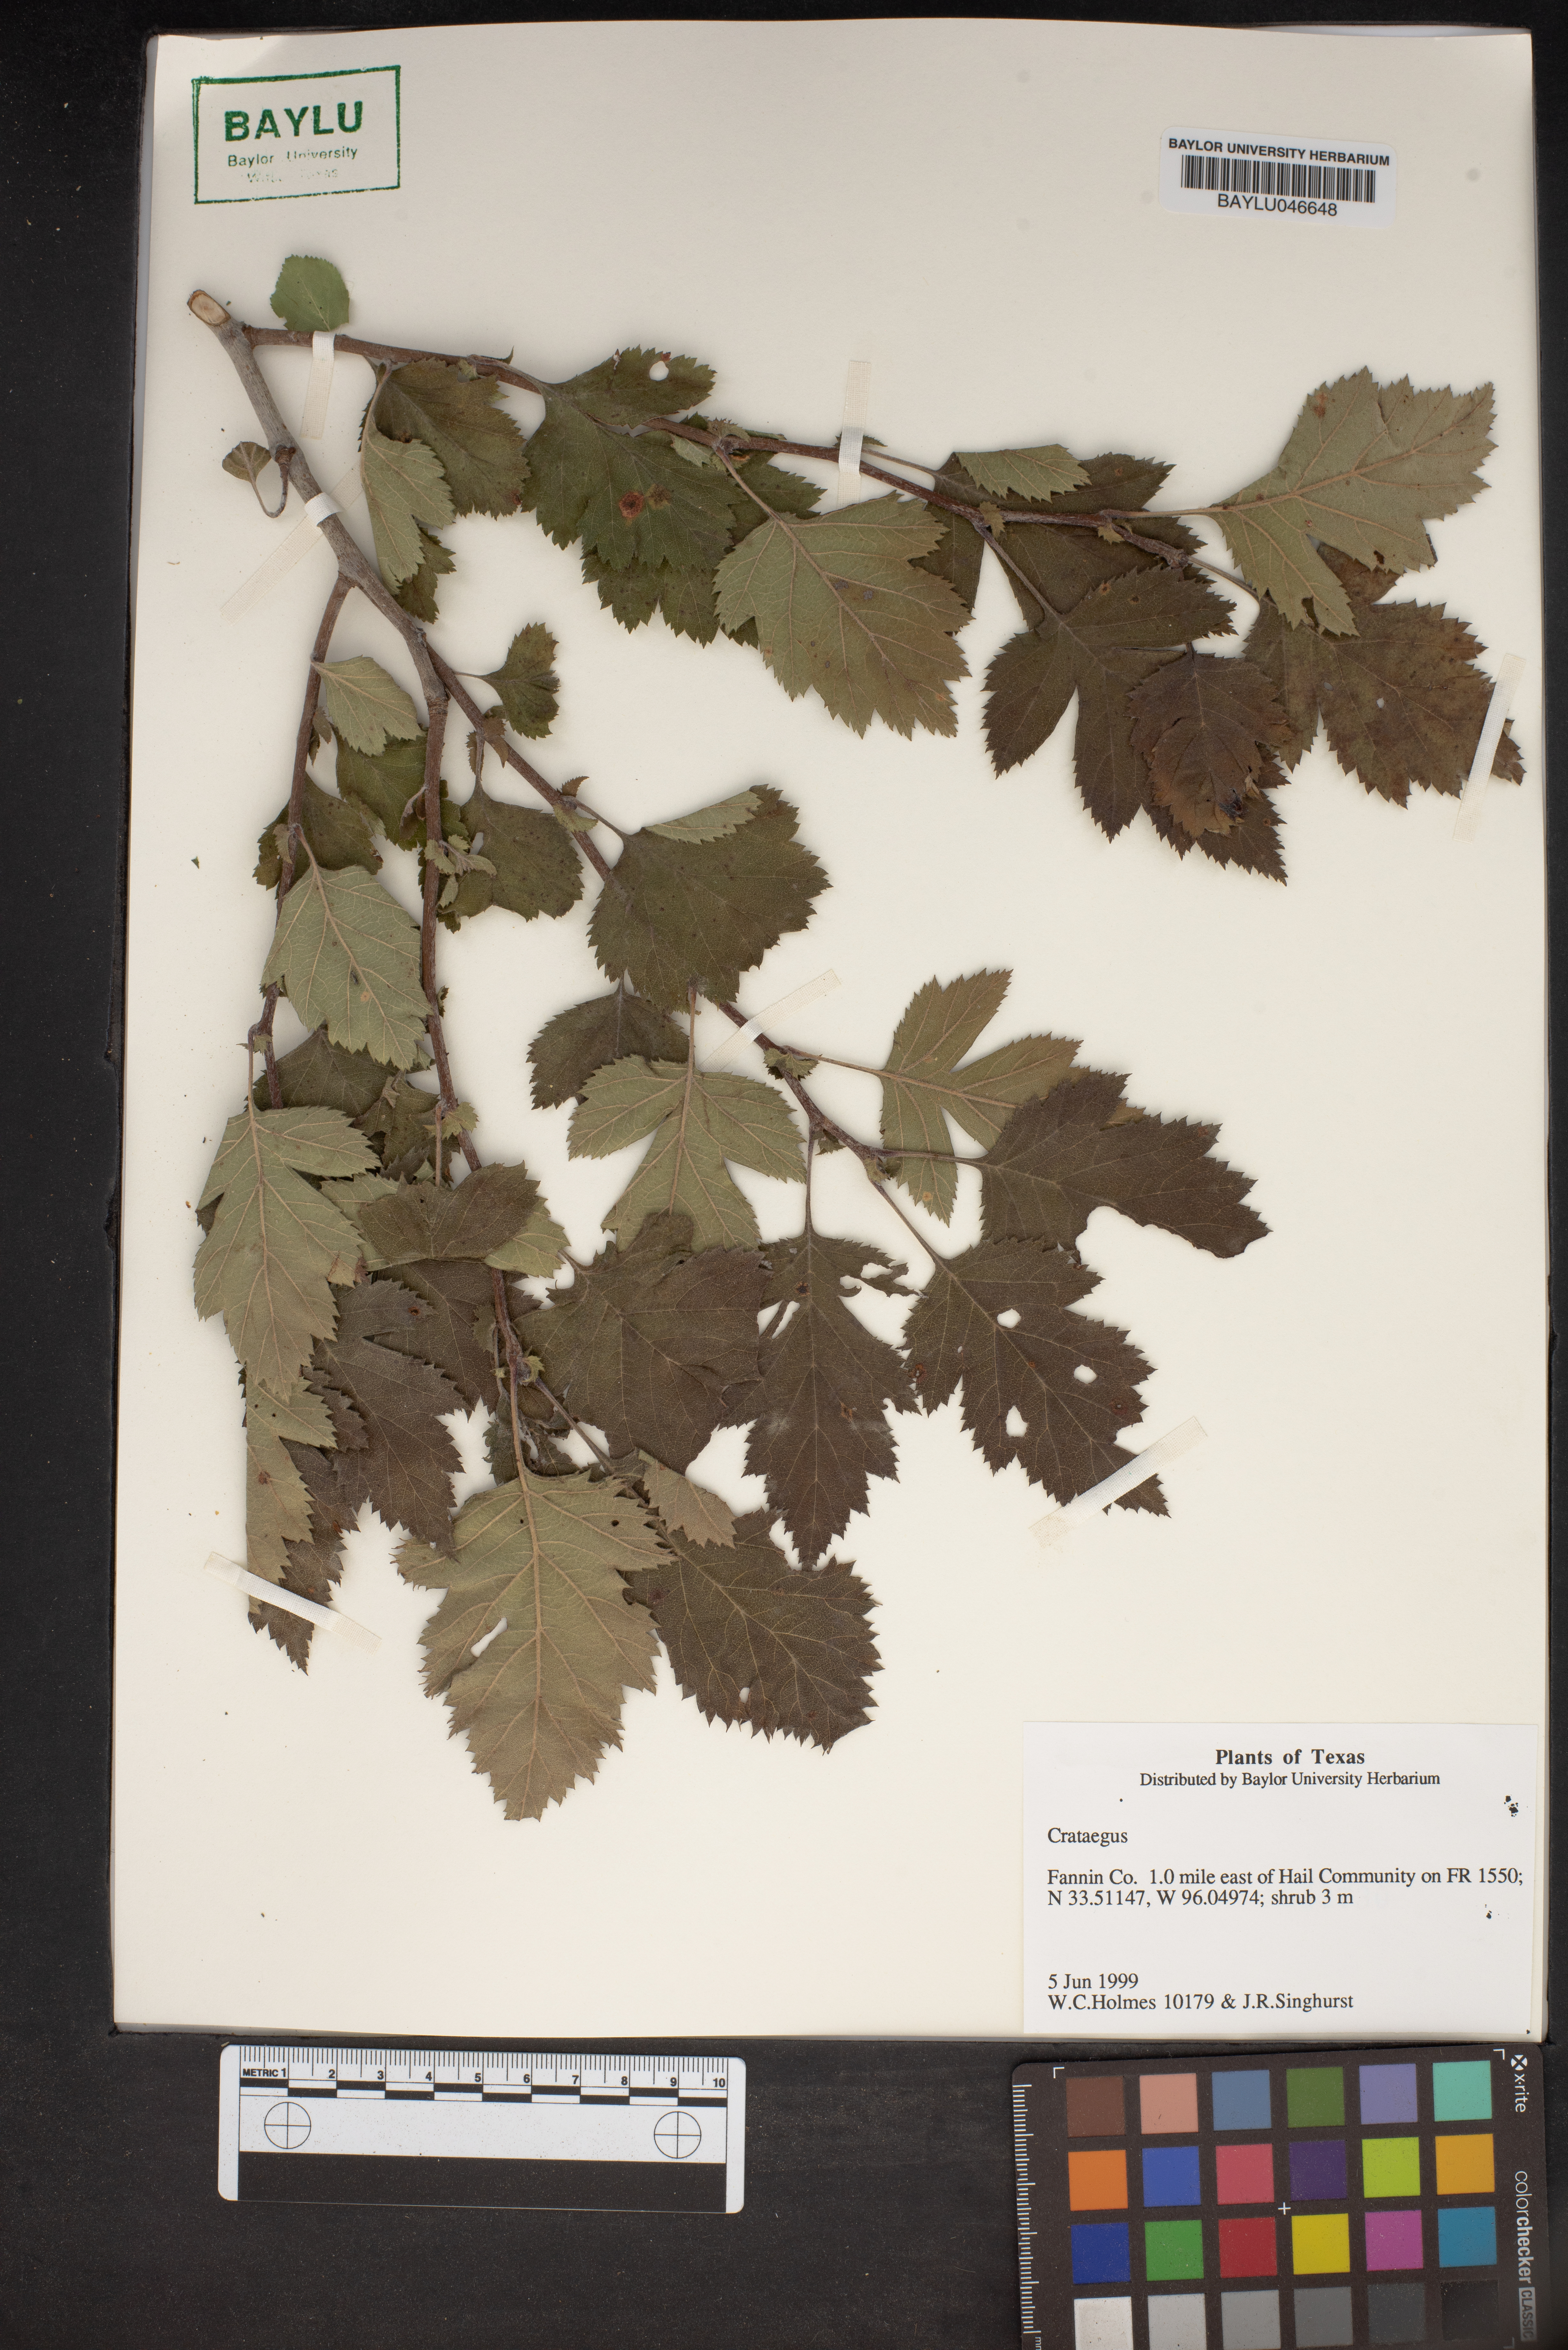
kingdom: Plantae
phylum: Tracheophyta
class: Magnoliopsida
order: Rosales
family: Rosaceae
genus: Crataegus
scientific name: Crataegus
